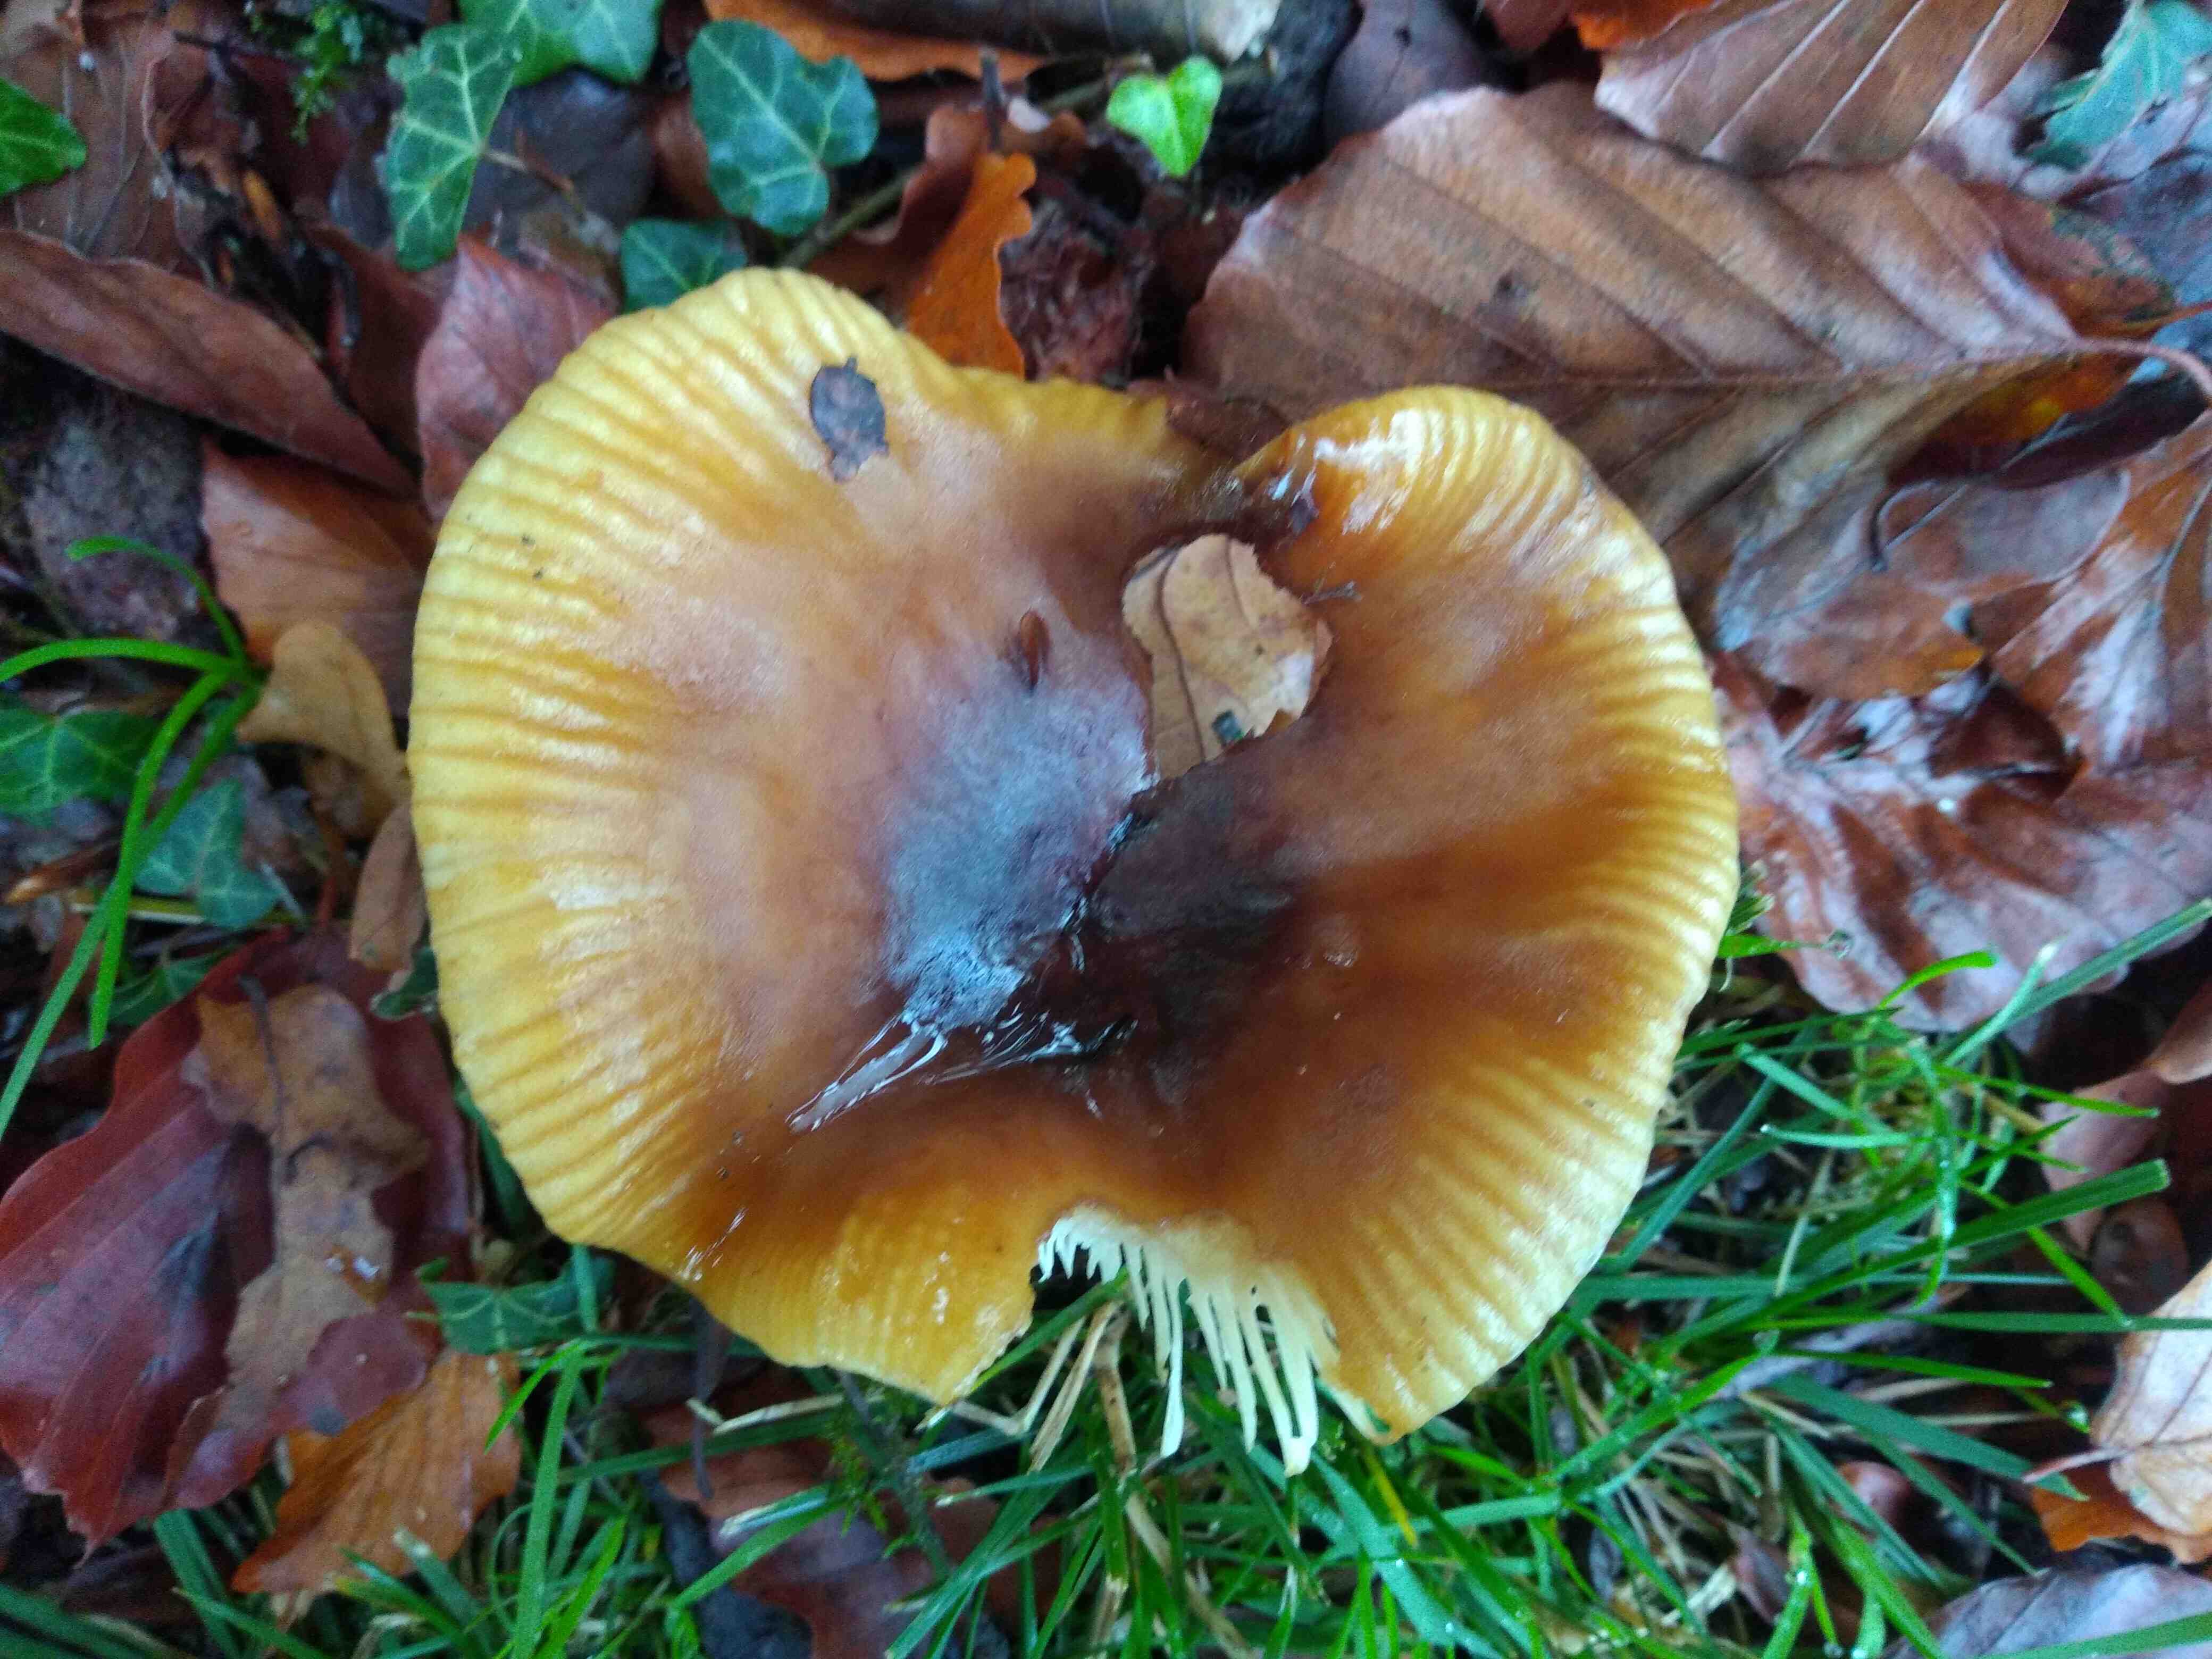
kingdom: Fungi
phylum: Basidiomycota
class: Agaricomycetes
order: Russulales
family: Russulaceae
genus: Russula
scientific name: Russula grata
